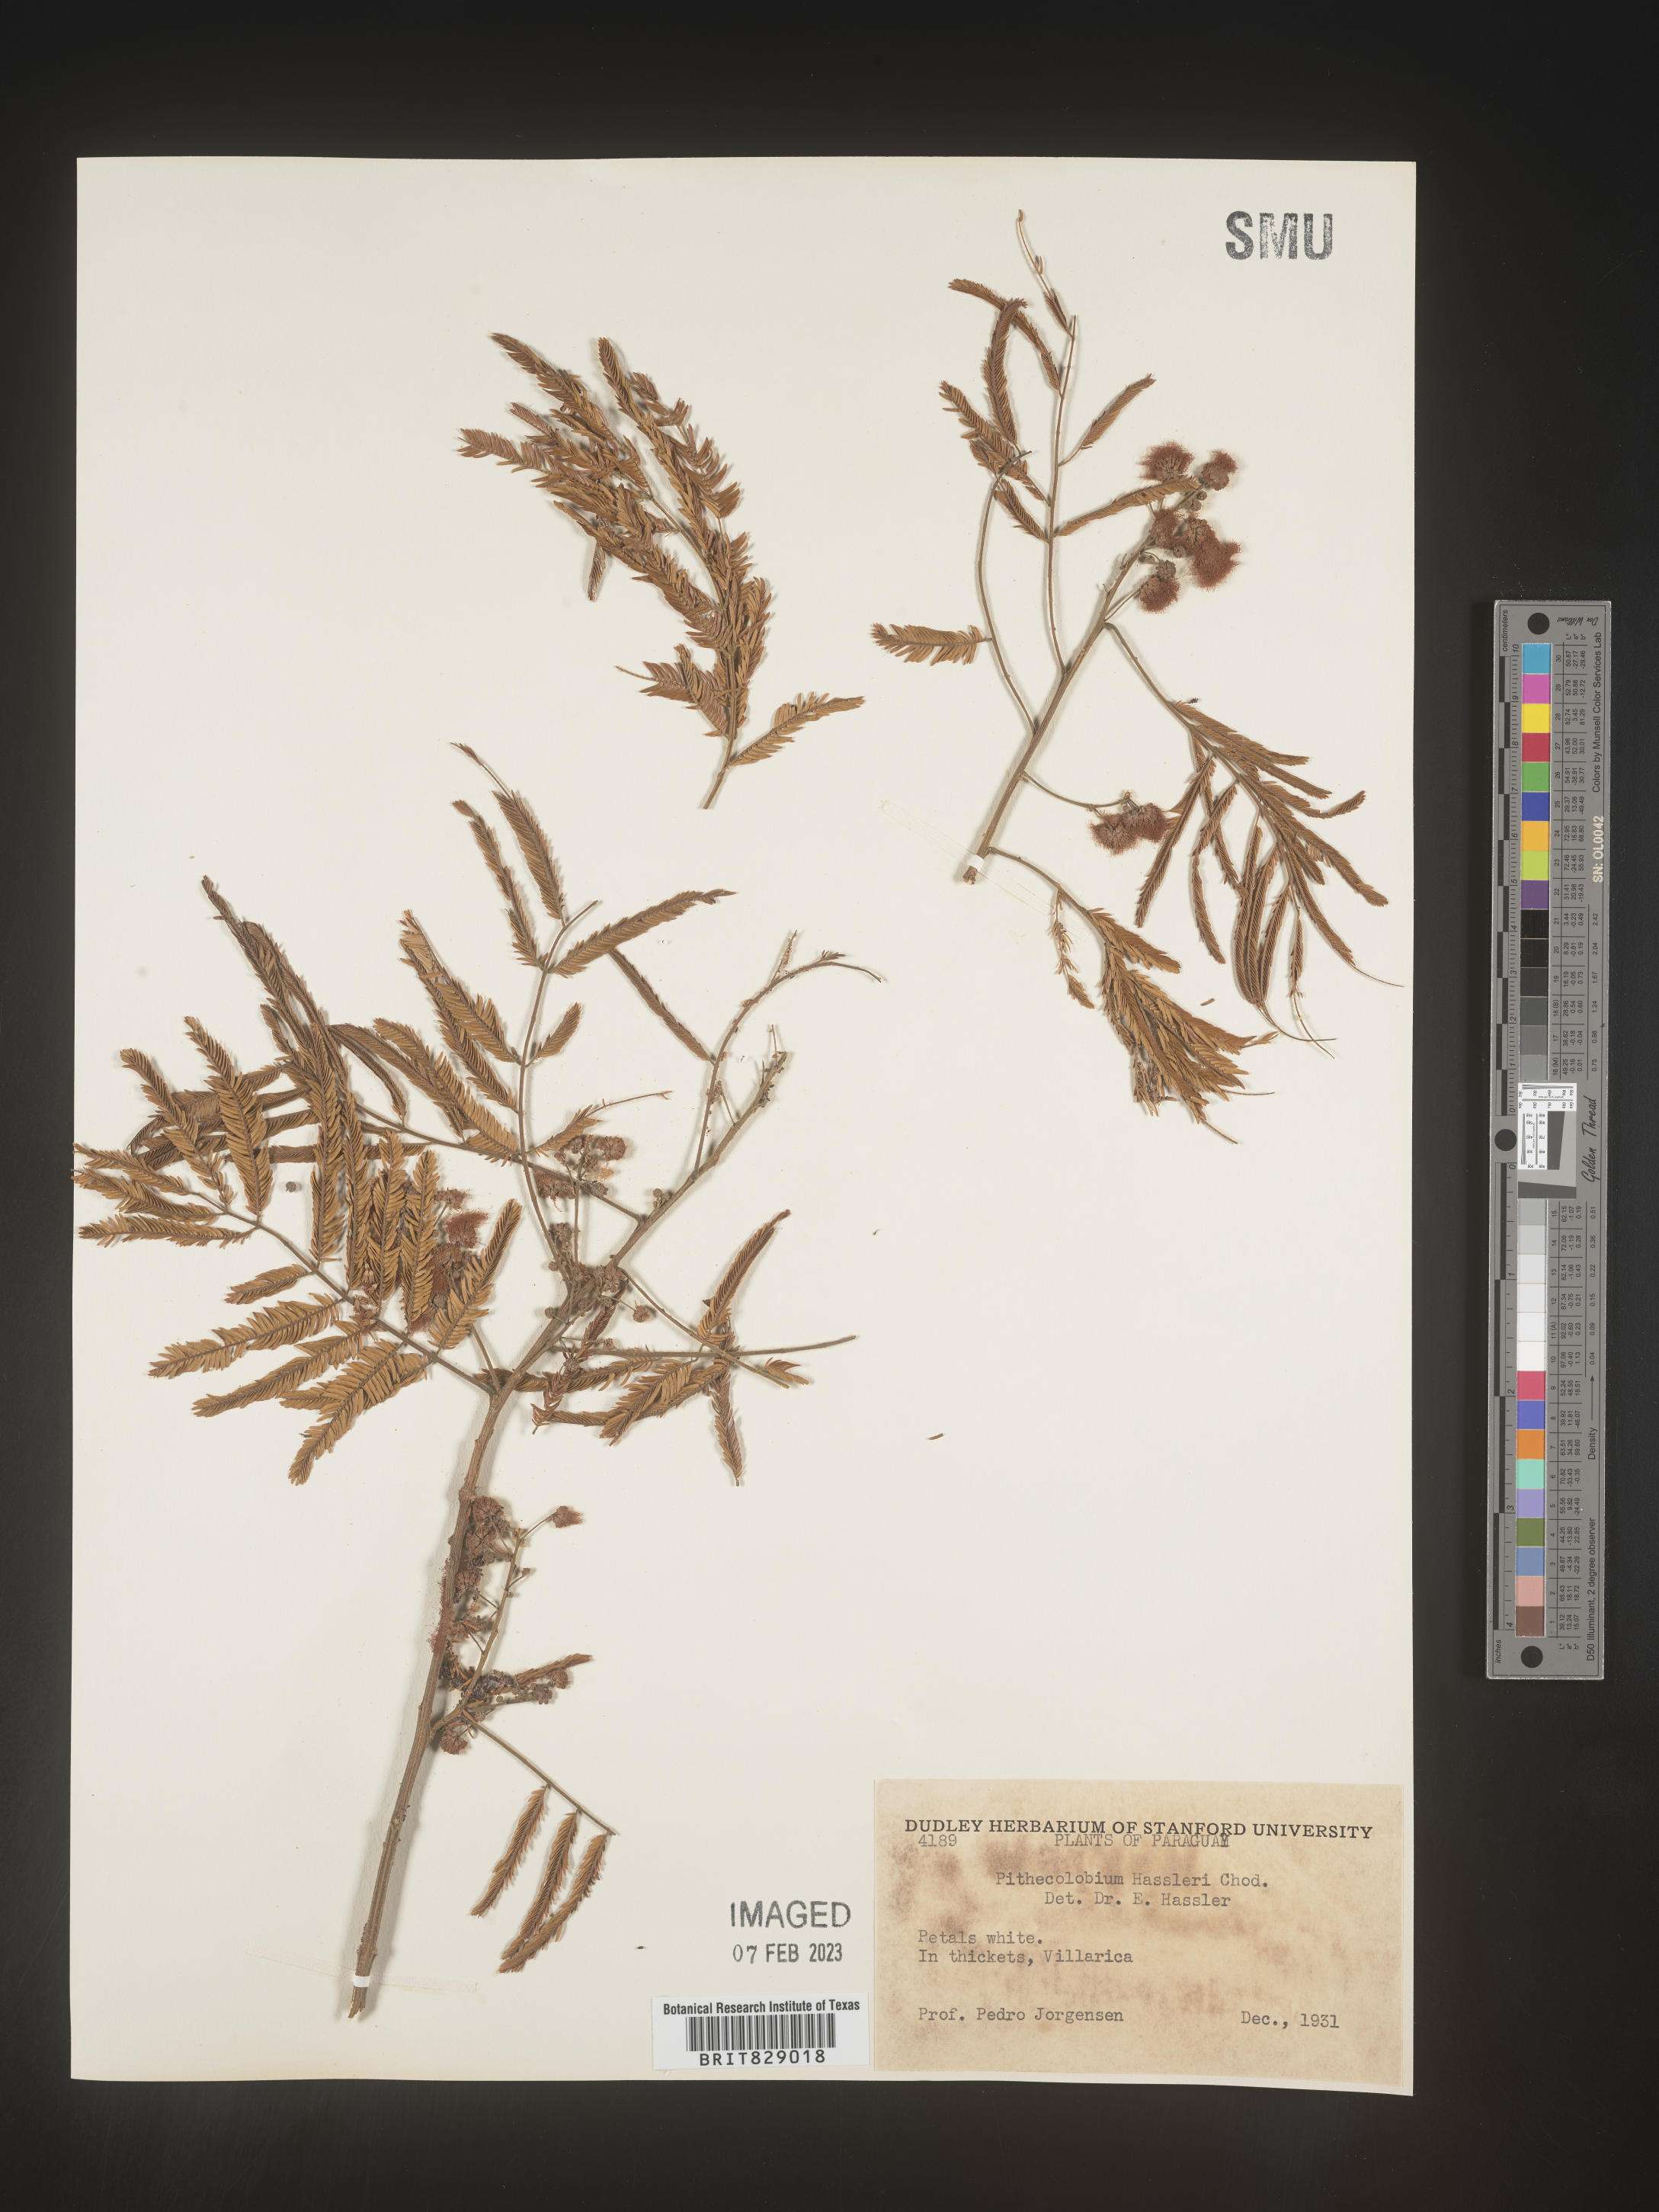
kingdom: Plantae
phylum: Tracheophyta
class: Magnoliopsida
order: Fabales
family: Fabaceae
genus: Pithecellobium
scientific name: Pithecellobium
